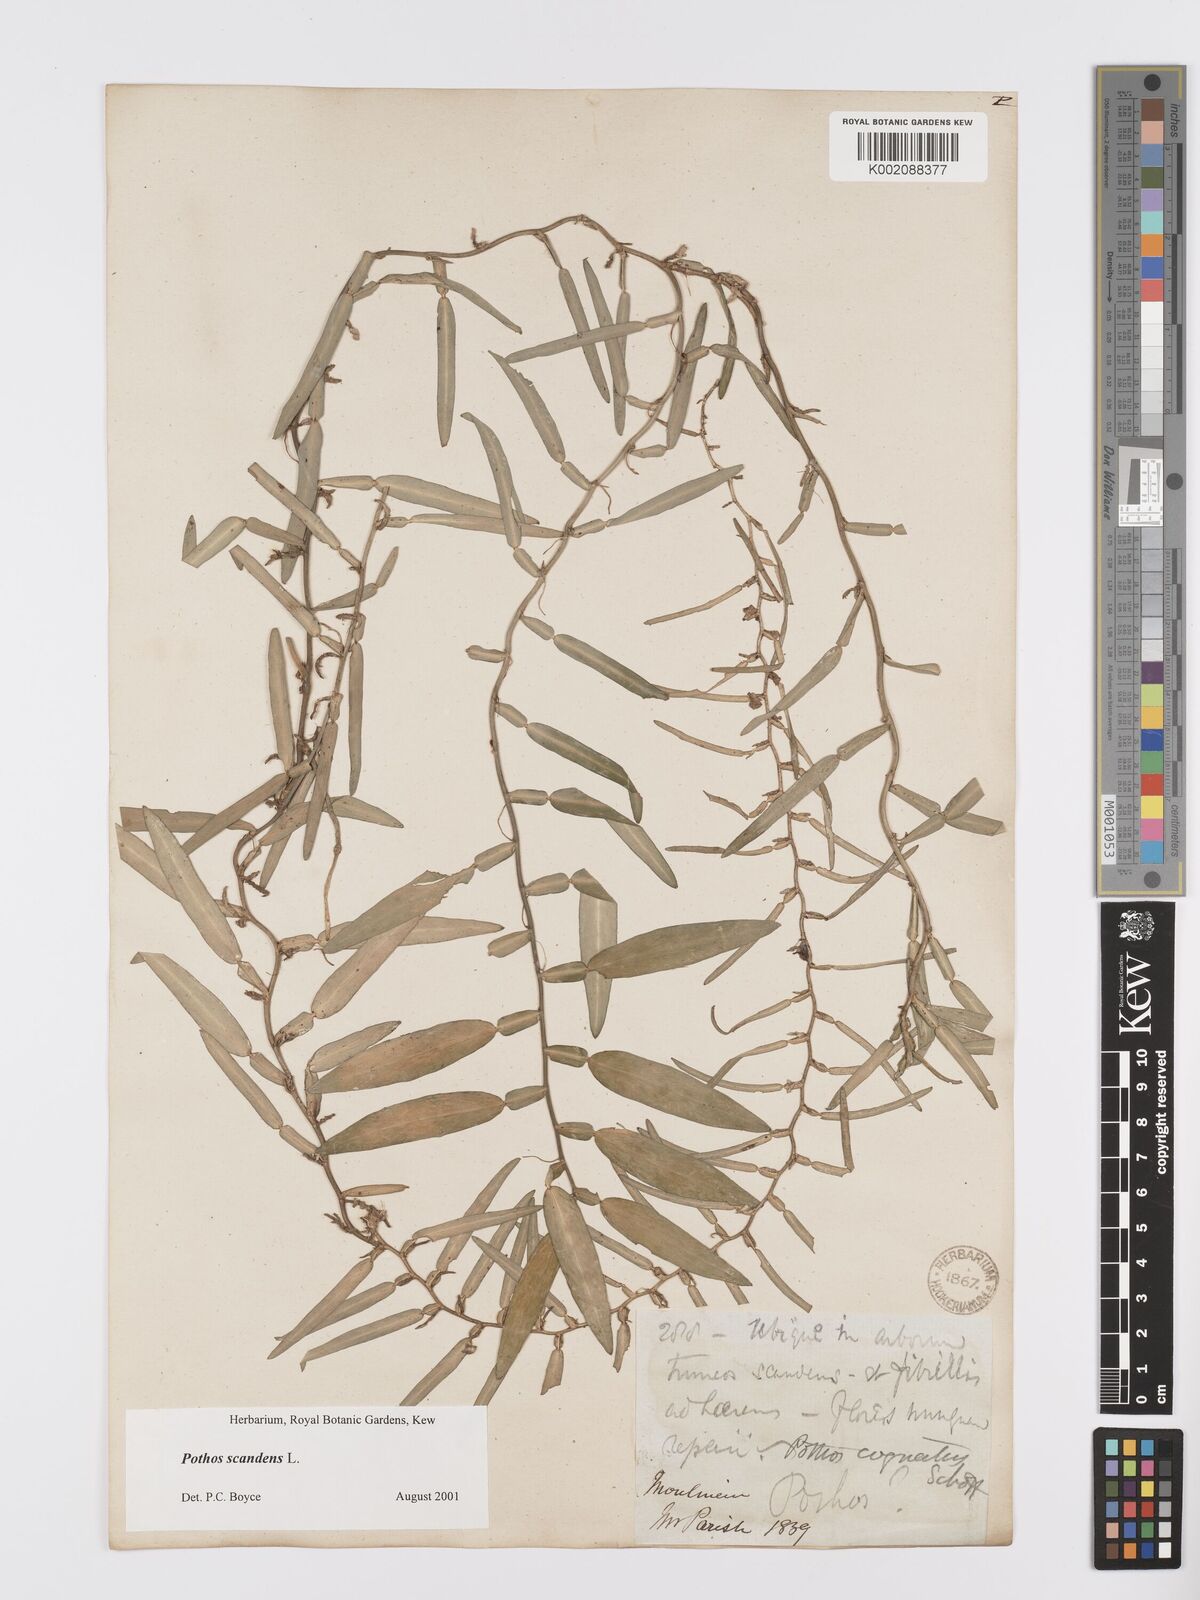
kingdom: Plantae
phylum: Tracheophyta
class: Liliopsida
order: Alismatales
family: Araceae
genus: Pothos
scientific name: Pothos scandens
